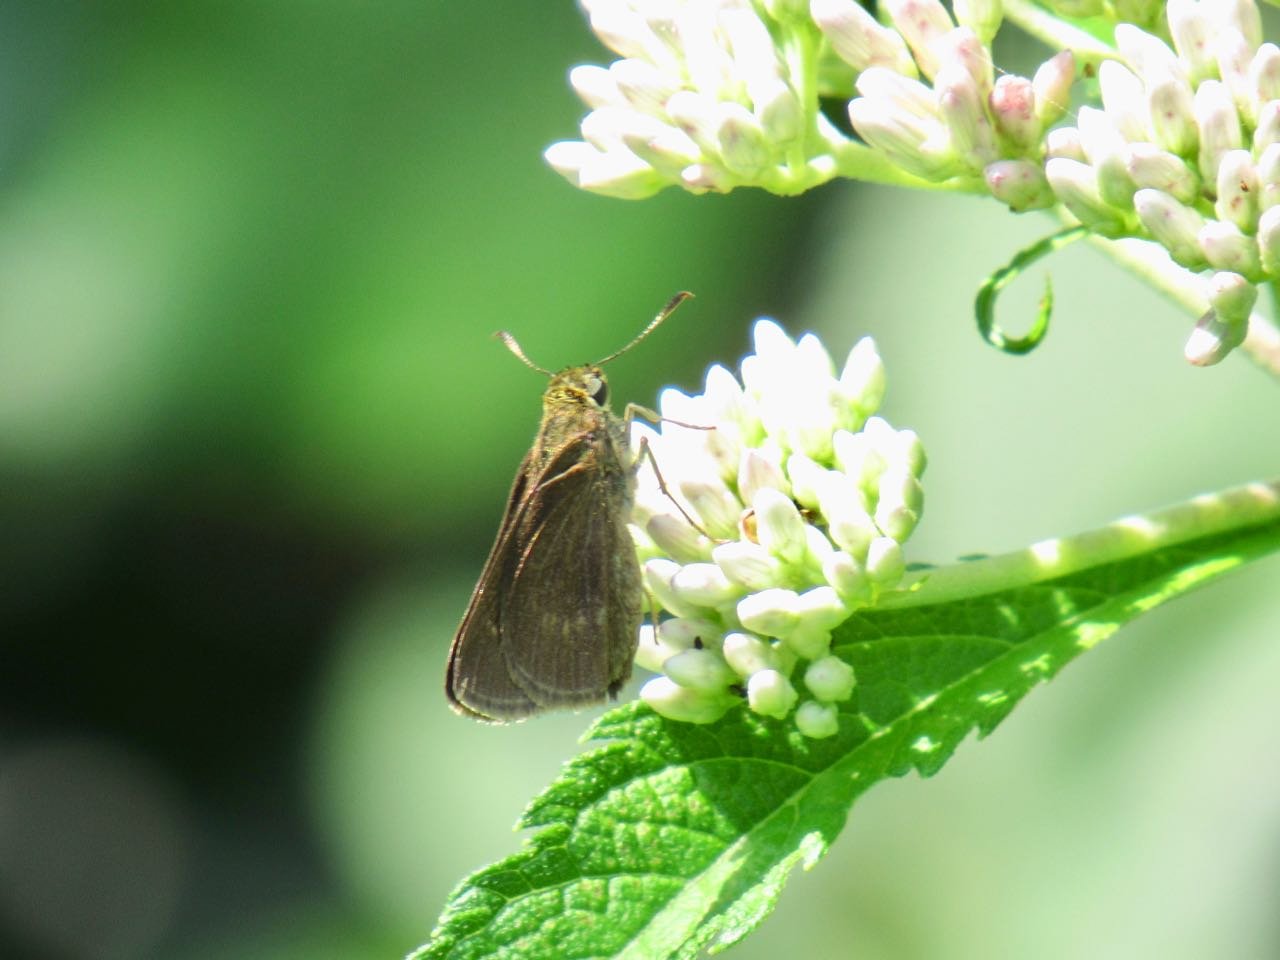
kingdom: Animalia
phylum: Arthropoda
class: Insecta
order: Lepidoptera
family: Hesperiidae
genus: Polites
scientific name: Polites egeremet
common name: Northern Broken-Dash
